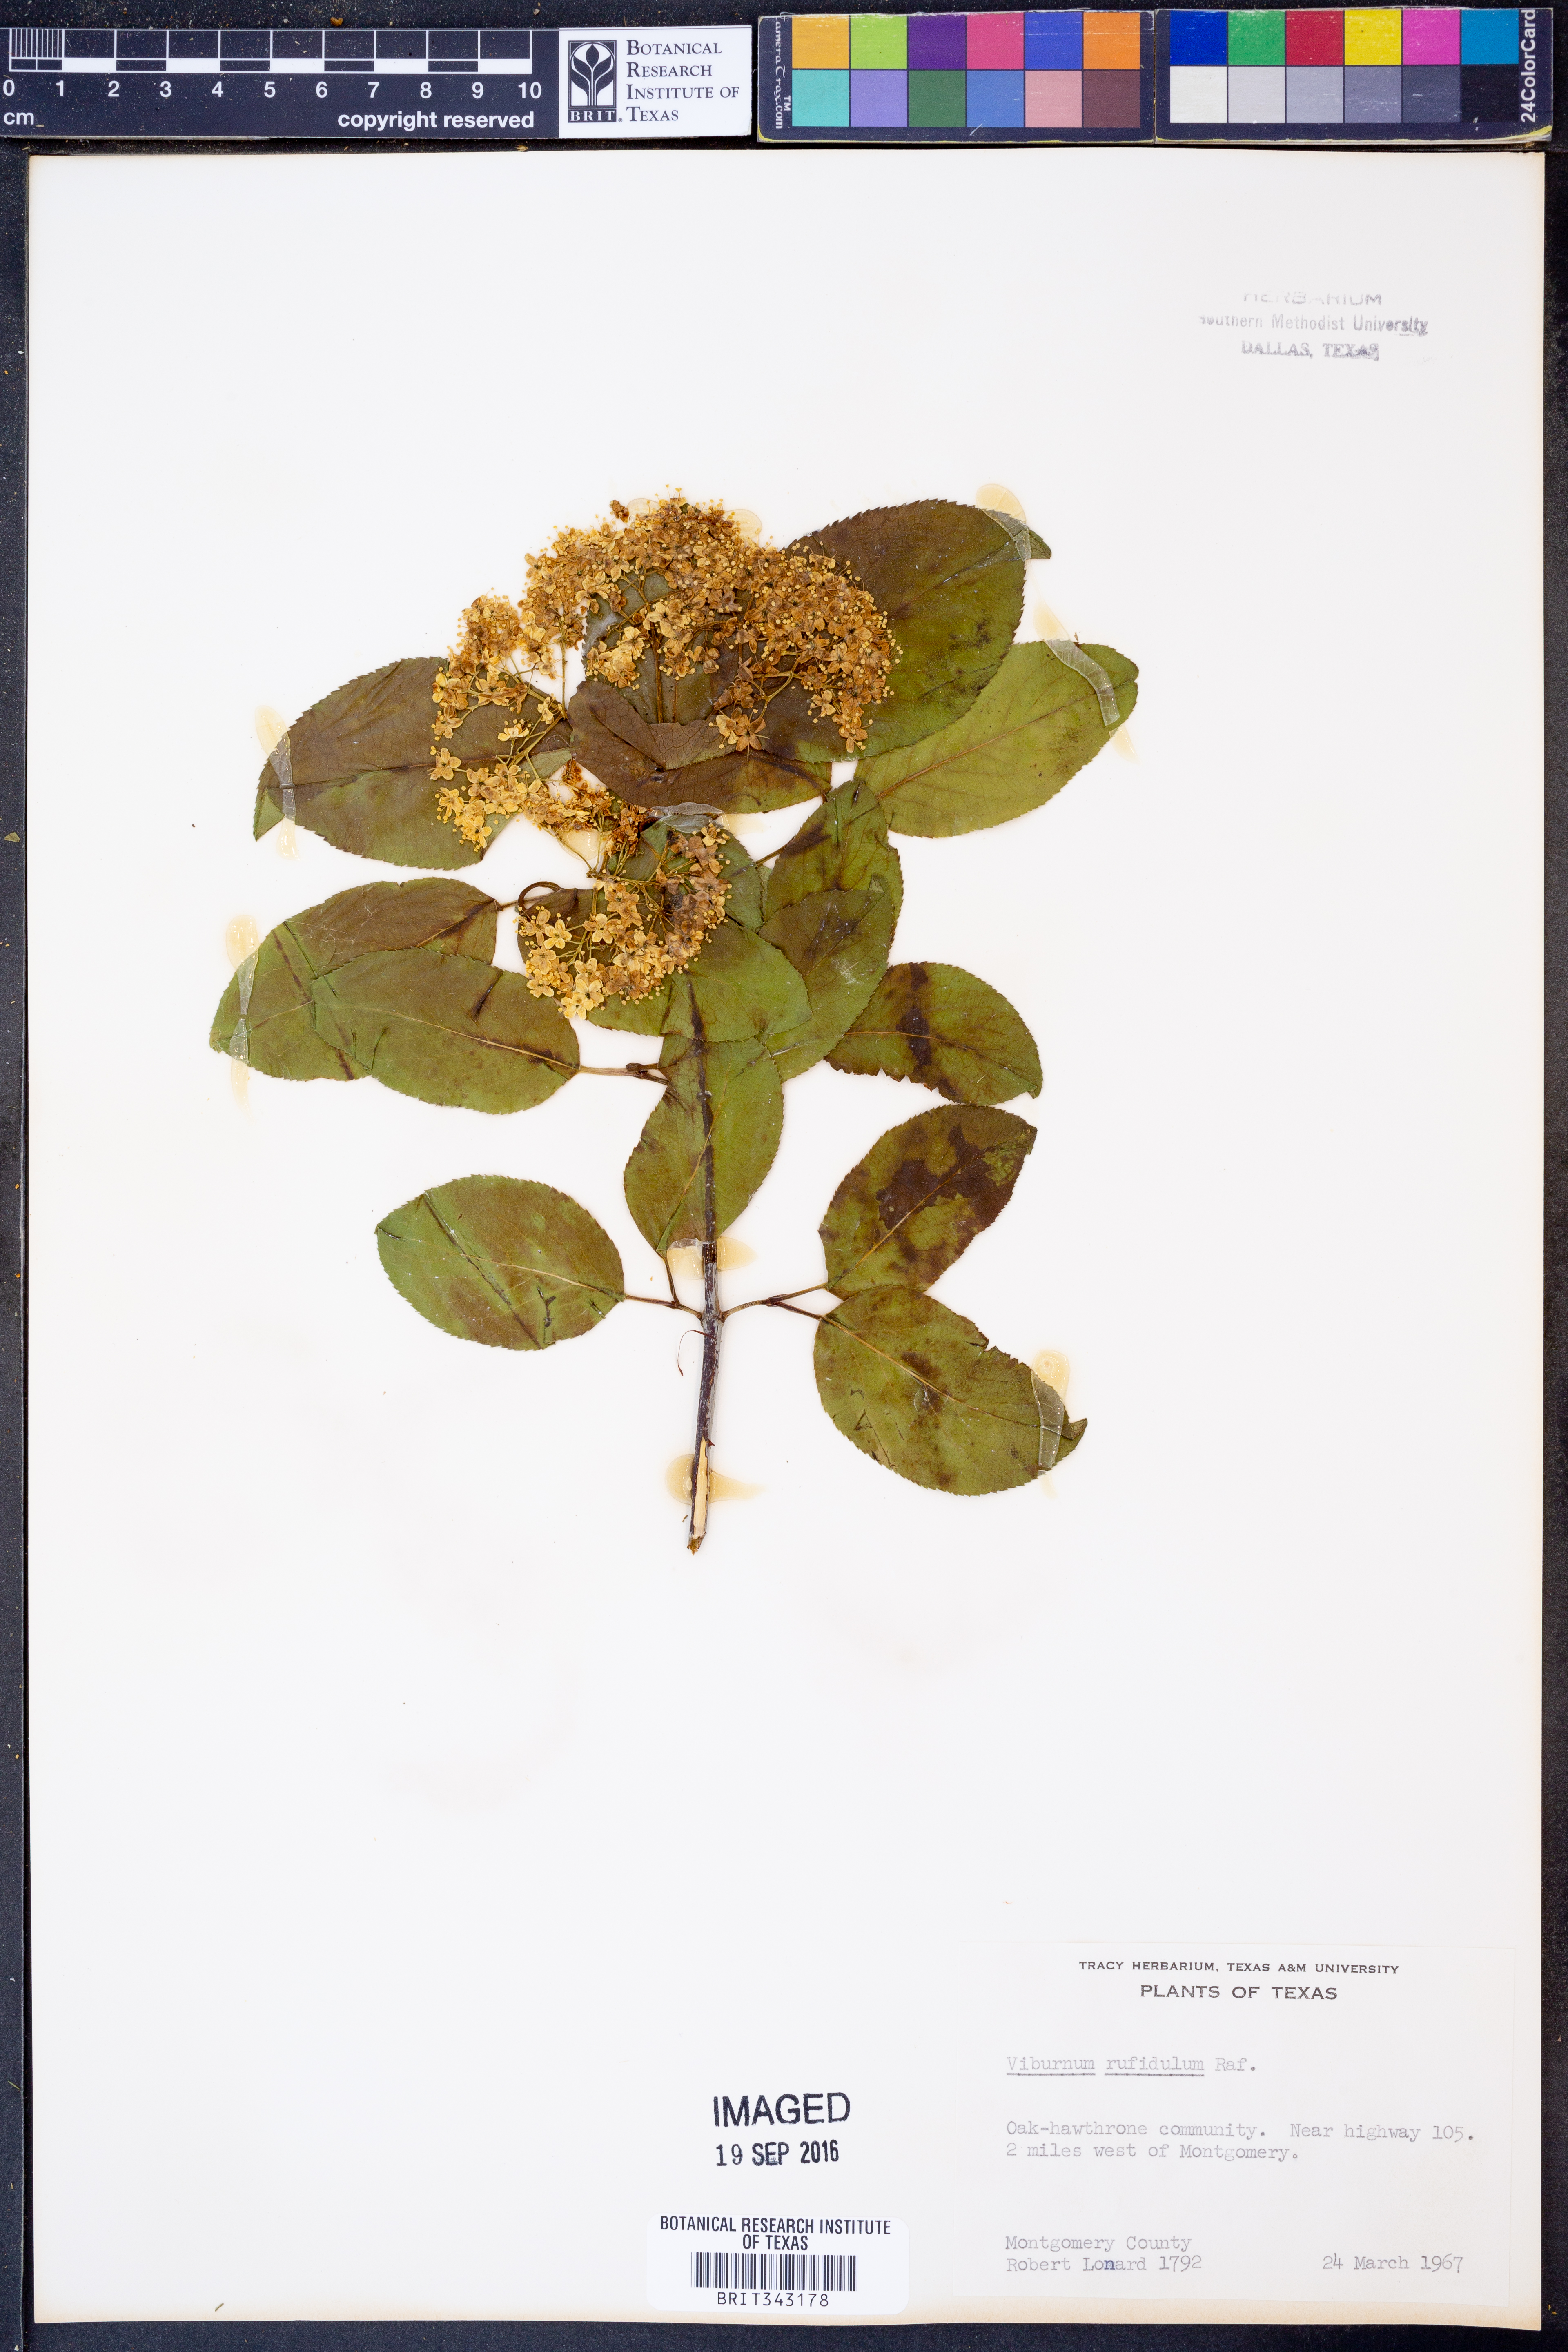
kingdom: Plantae
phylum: Tracheophyta
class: Magnoliopsida
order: Dipsacales
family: Viburnaceae
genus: Viburnum
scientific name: Viburnum rufidulum
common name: Blue haw
